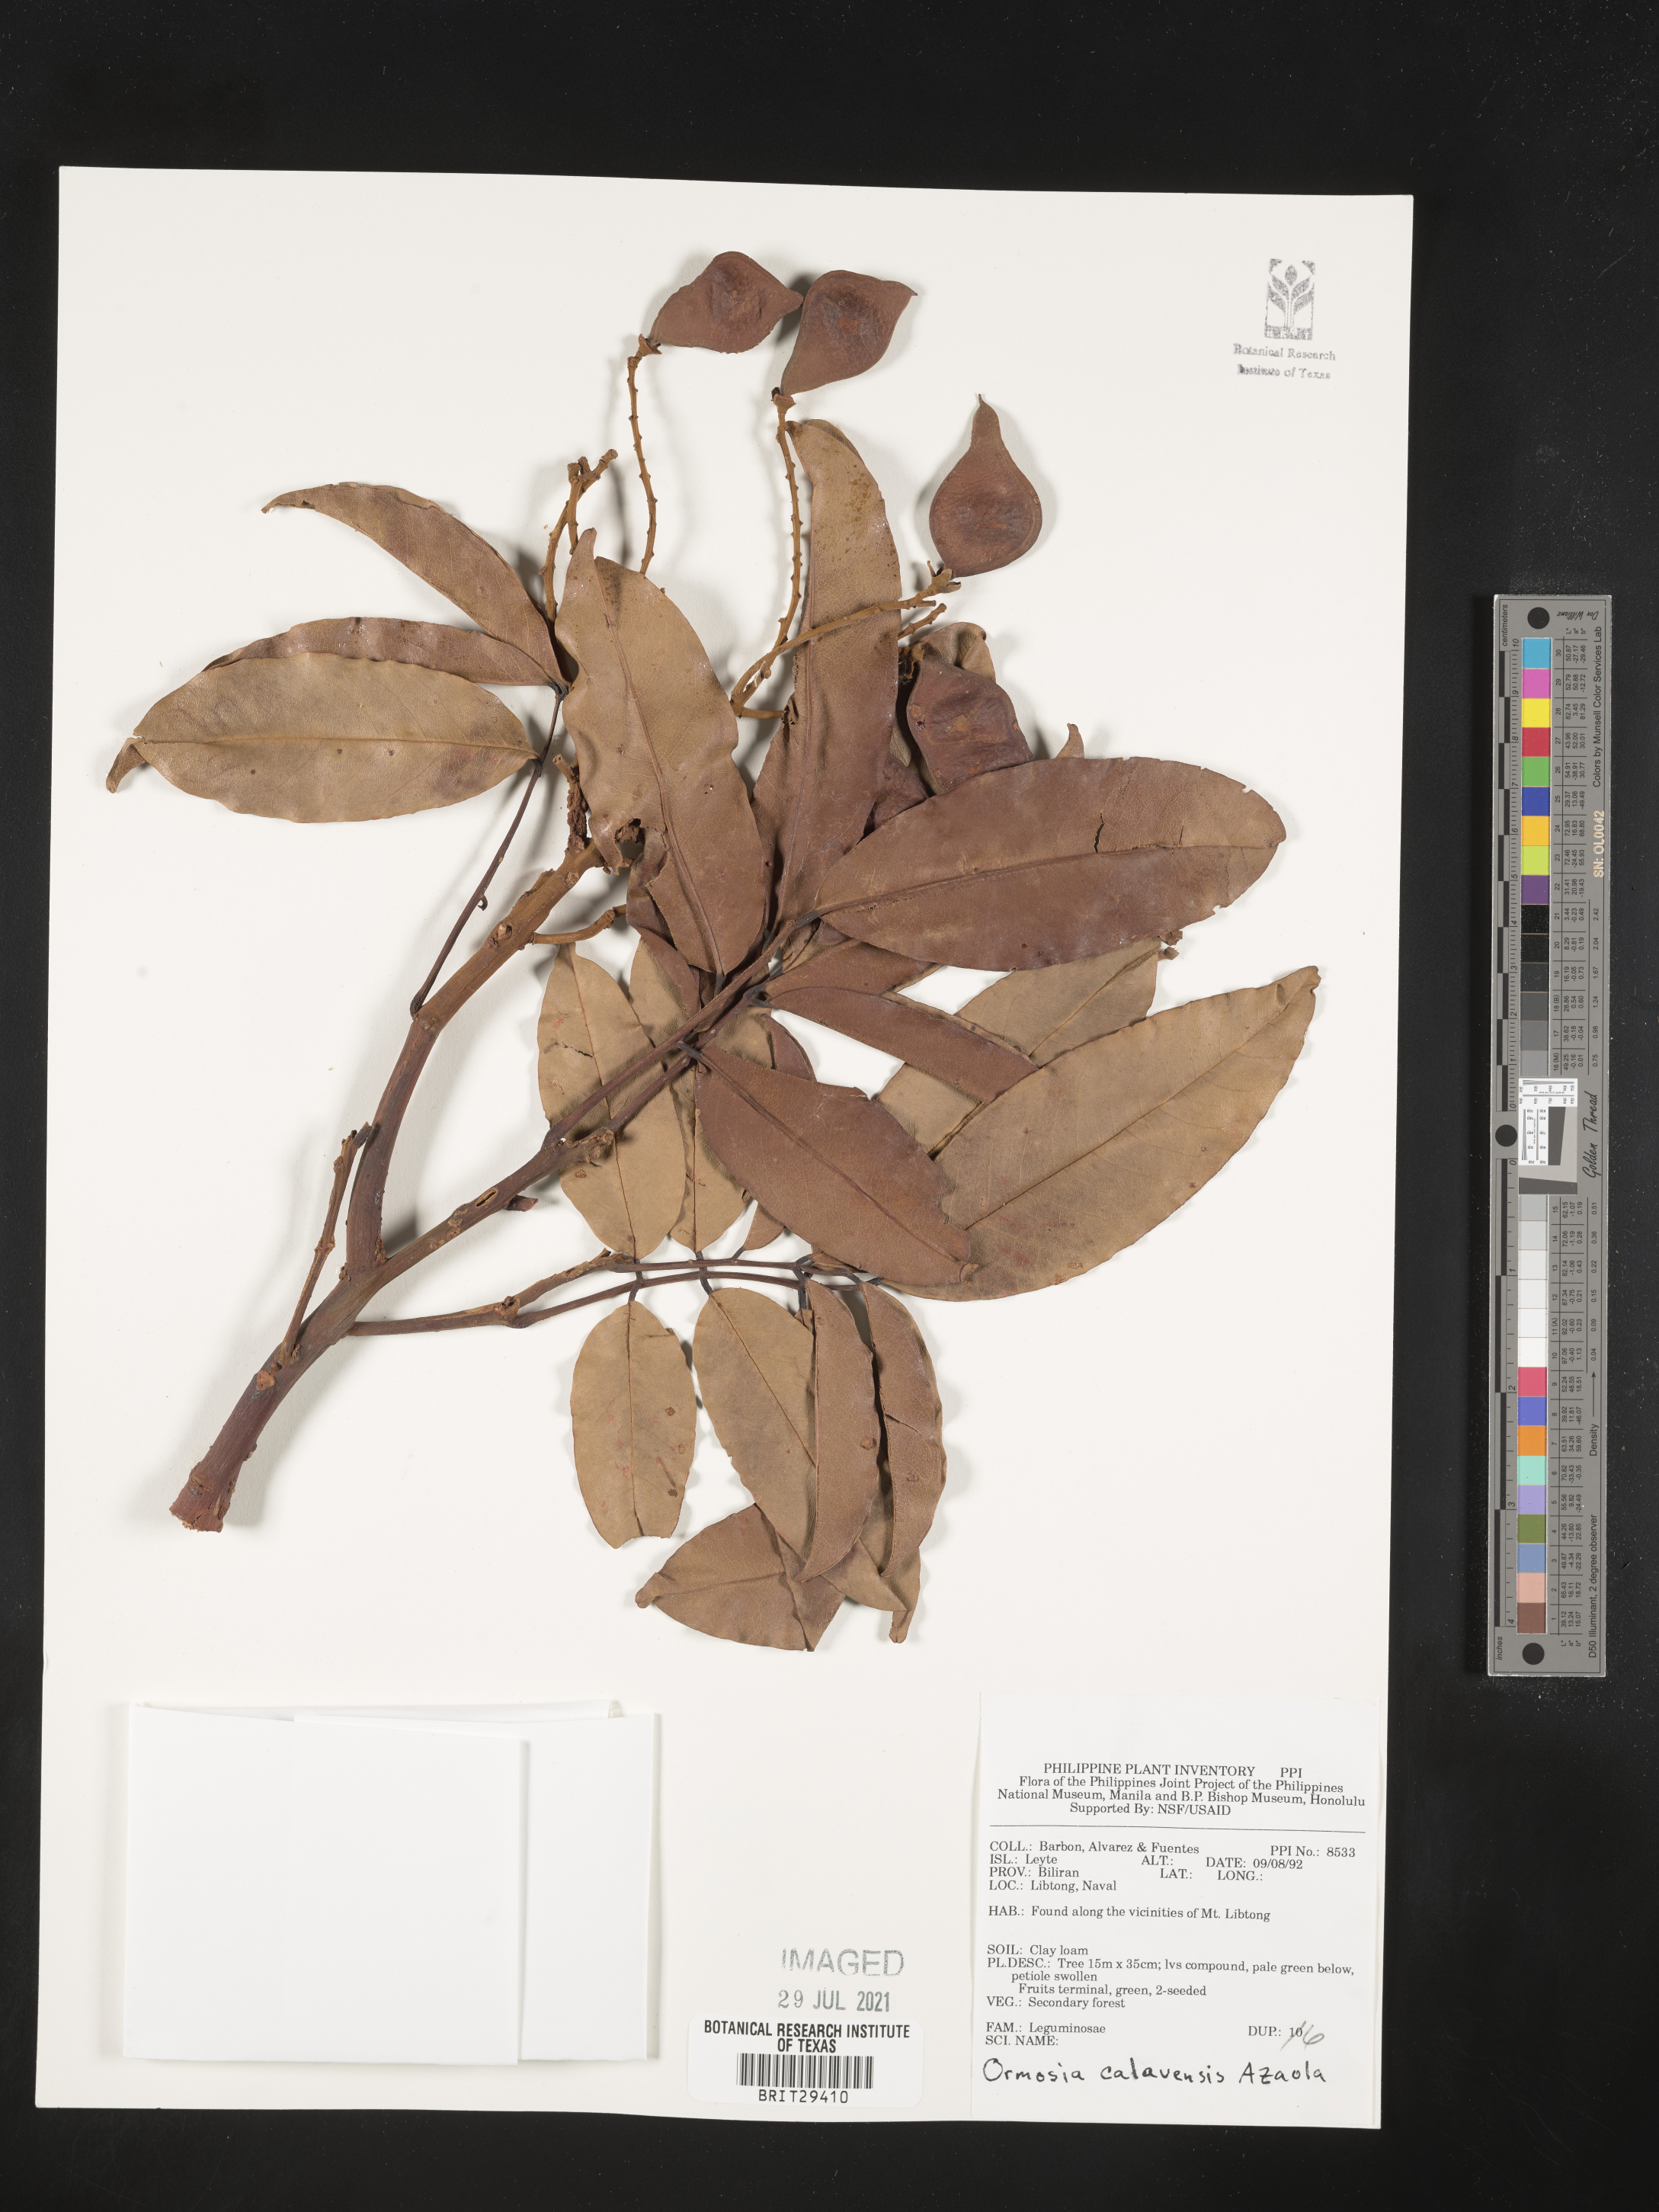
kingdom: Plantae
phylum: Tracheophyta
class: Magnoliopsida
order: Fabales
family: Fabaceae
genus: Ormosia
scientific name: Ormosia calavensis
